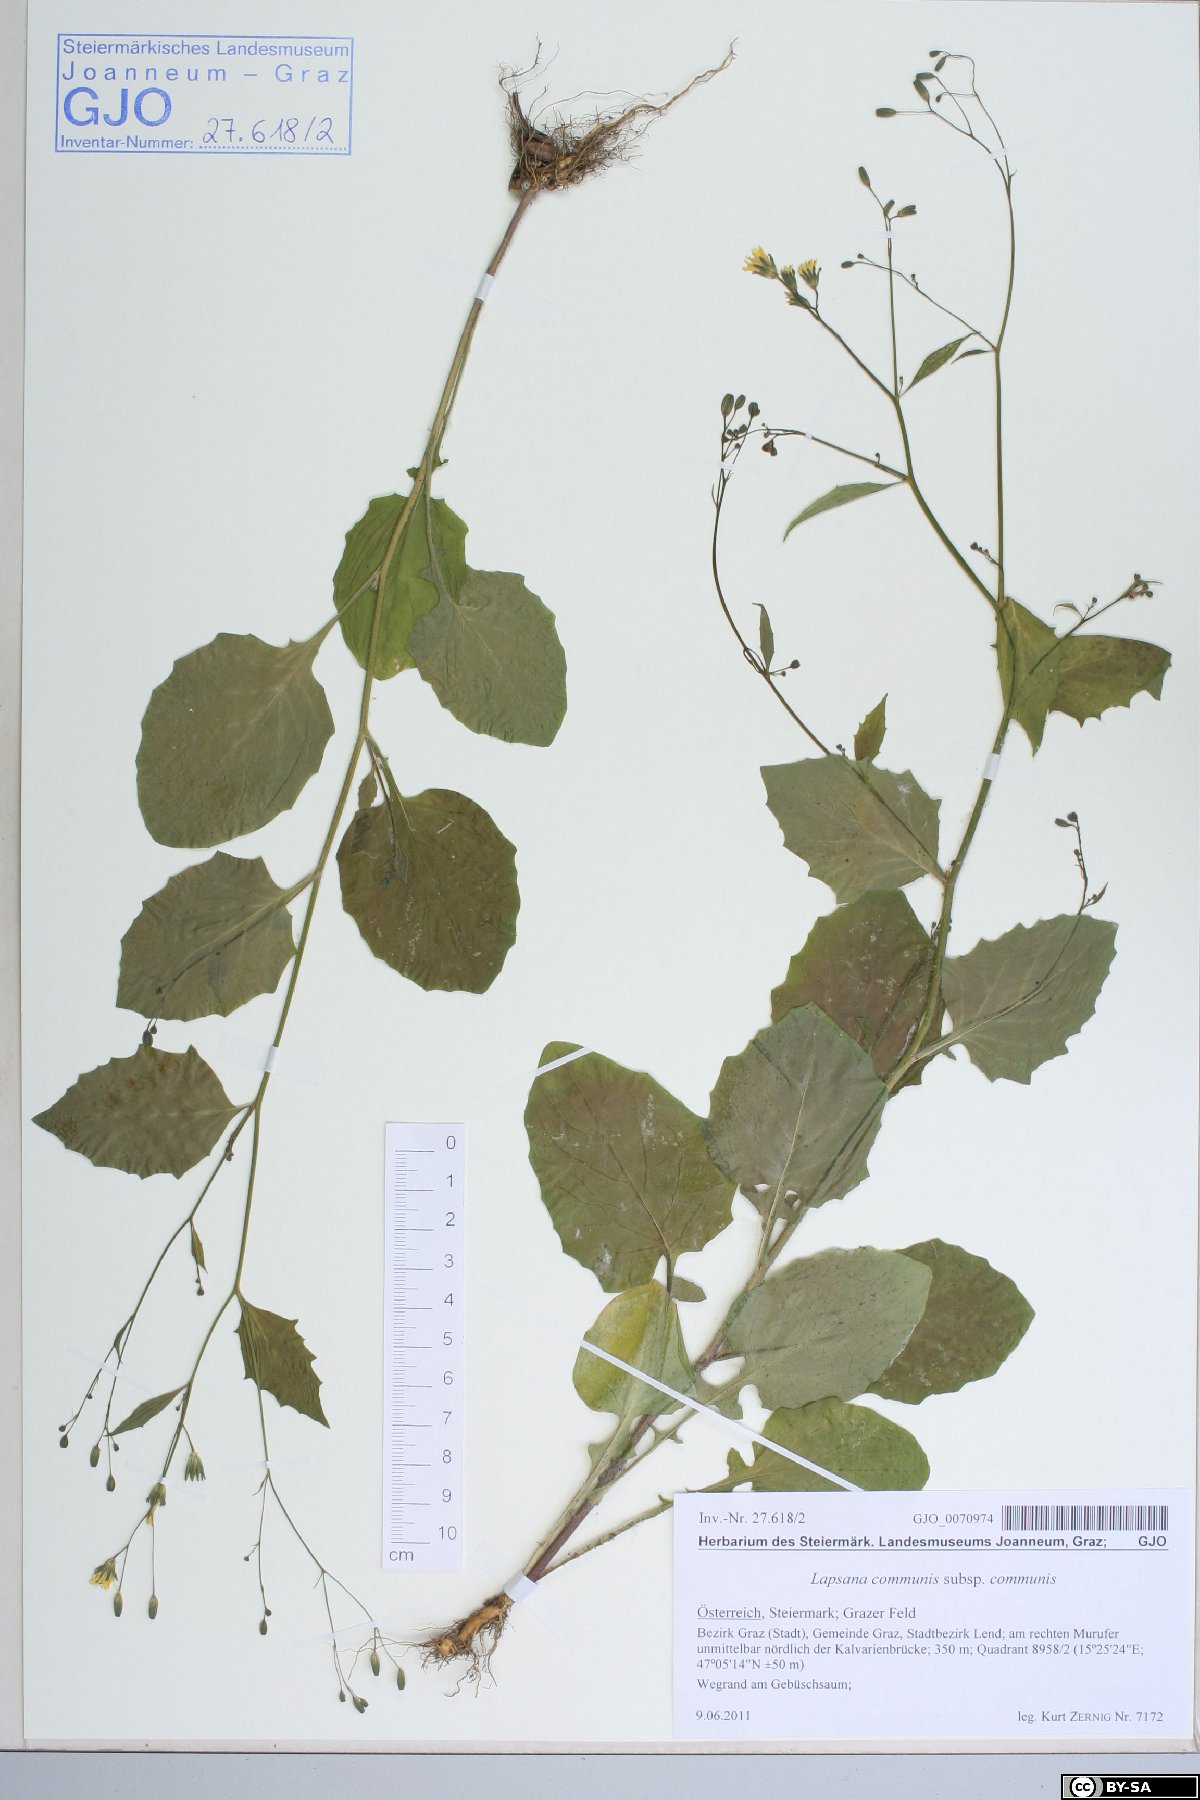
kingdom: Plantae
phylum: Tracheophyta
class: Magnoliopsida
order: Asterales
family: Asteraceae
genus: Lapsana
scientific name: Lapsana communis
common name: Nipplewort
